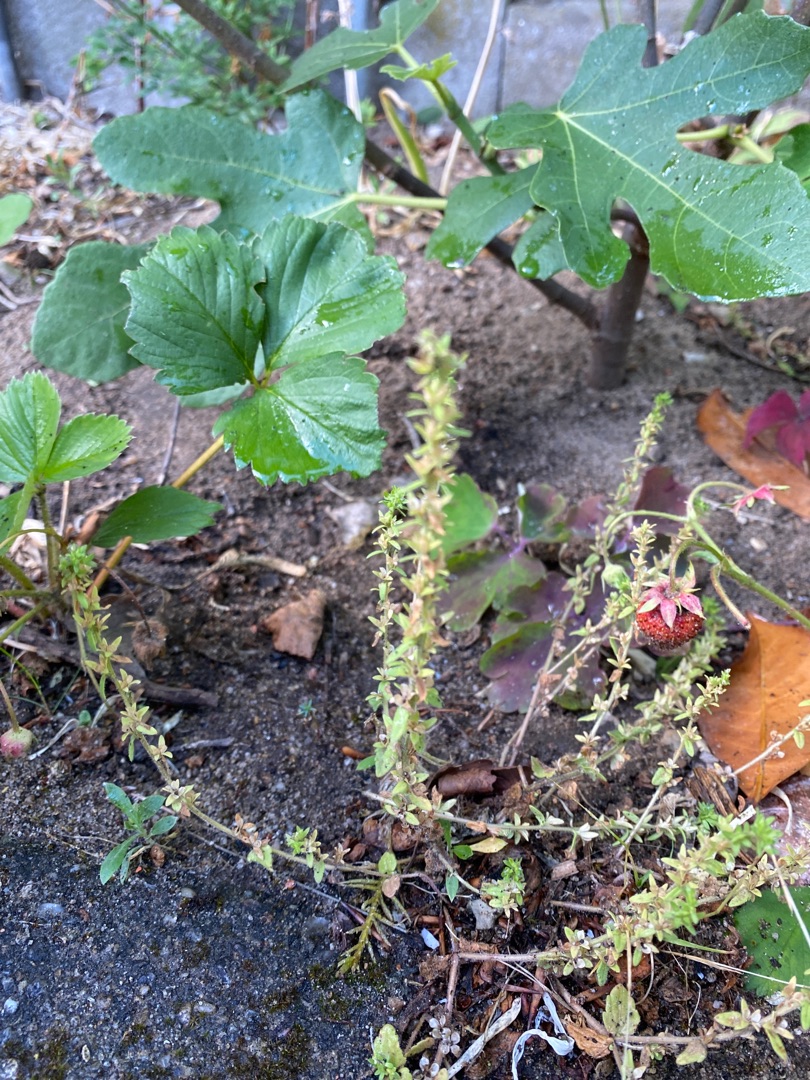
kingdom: Plantae
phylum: Tracheophyta
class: Magnoliopsida
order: Lamiales
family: Plantaginaceae
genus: Veronica
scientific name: Veronica arvensis
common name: Mark-ærenpris
